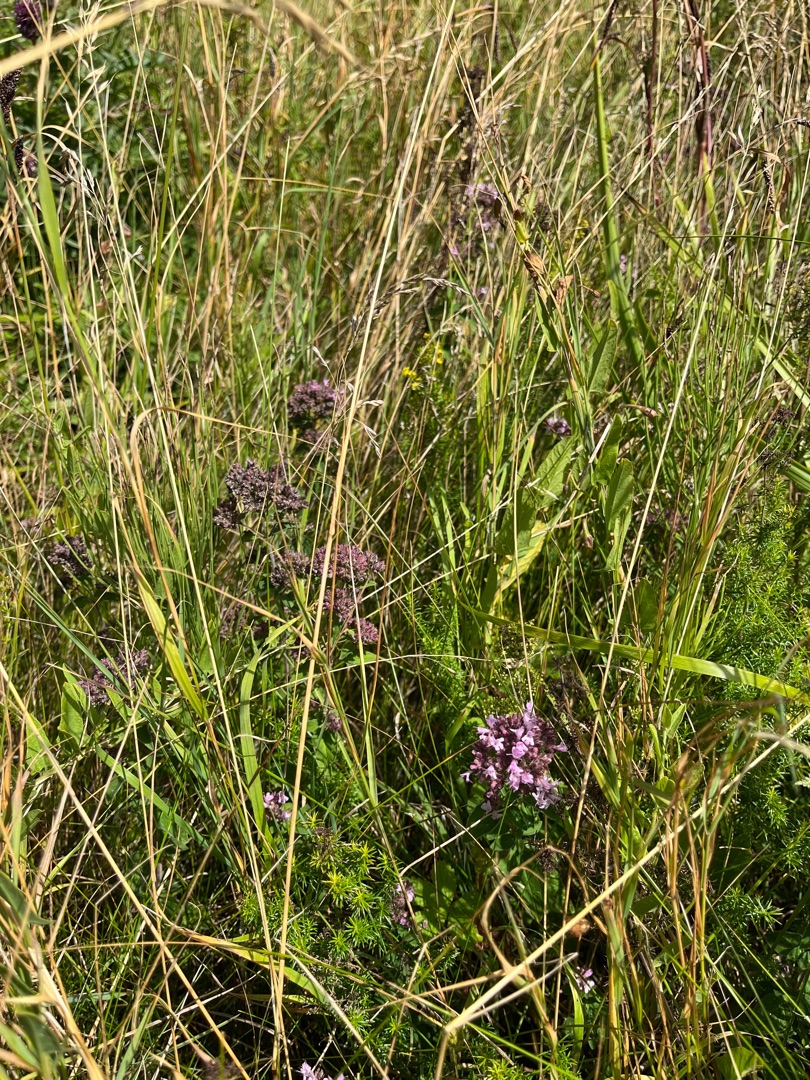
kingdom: Plantae
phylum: Tracheophyta
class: Magnoliopsida
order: Lamiales
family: Lamiaceae
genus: Origanum
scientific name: Origanum vulgare
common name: Merian
